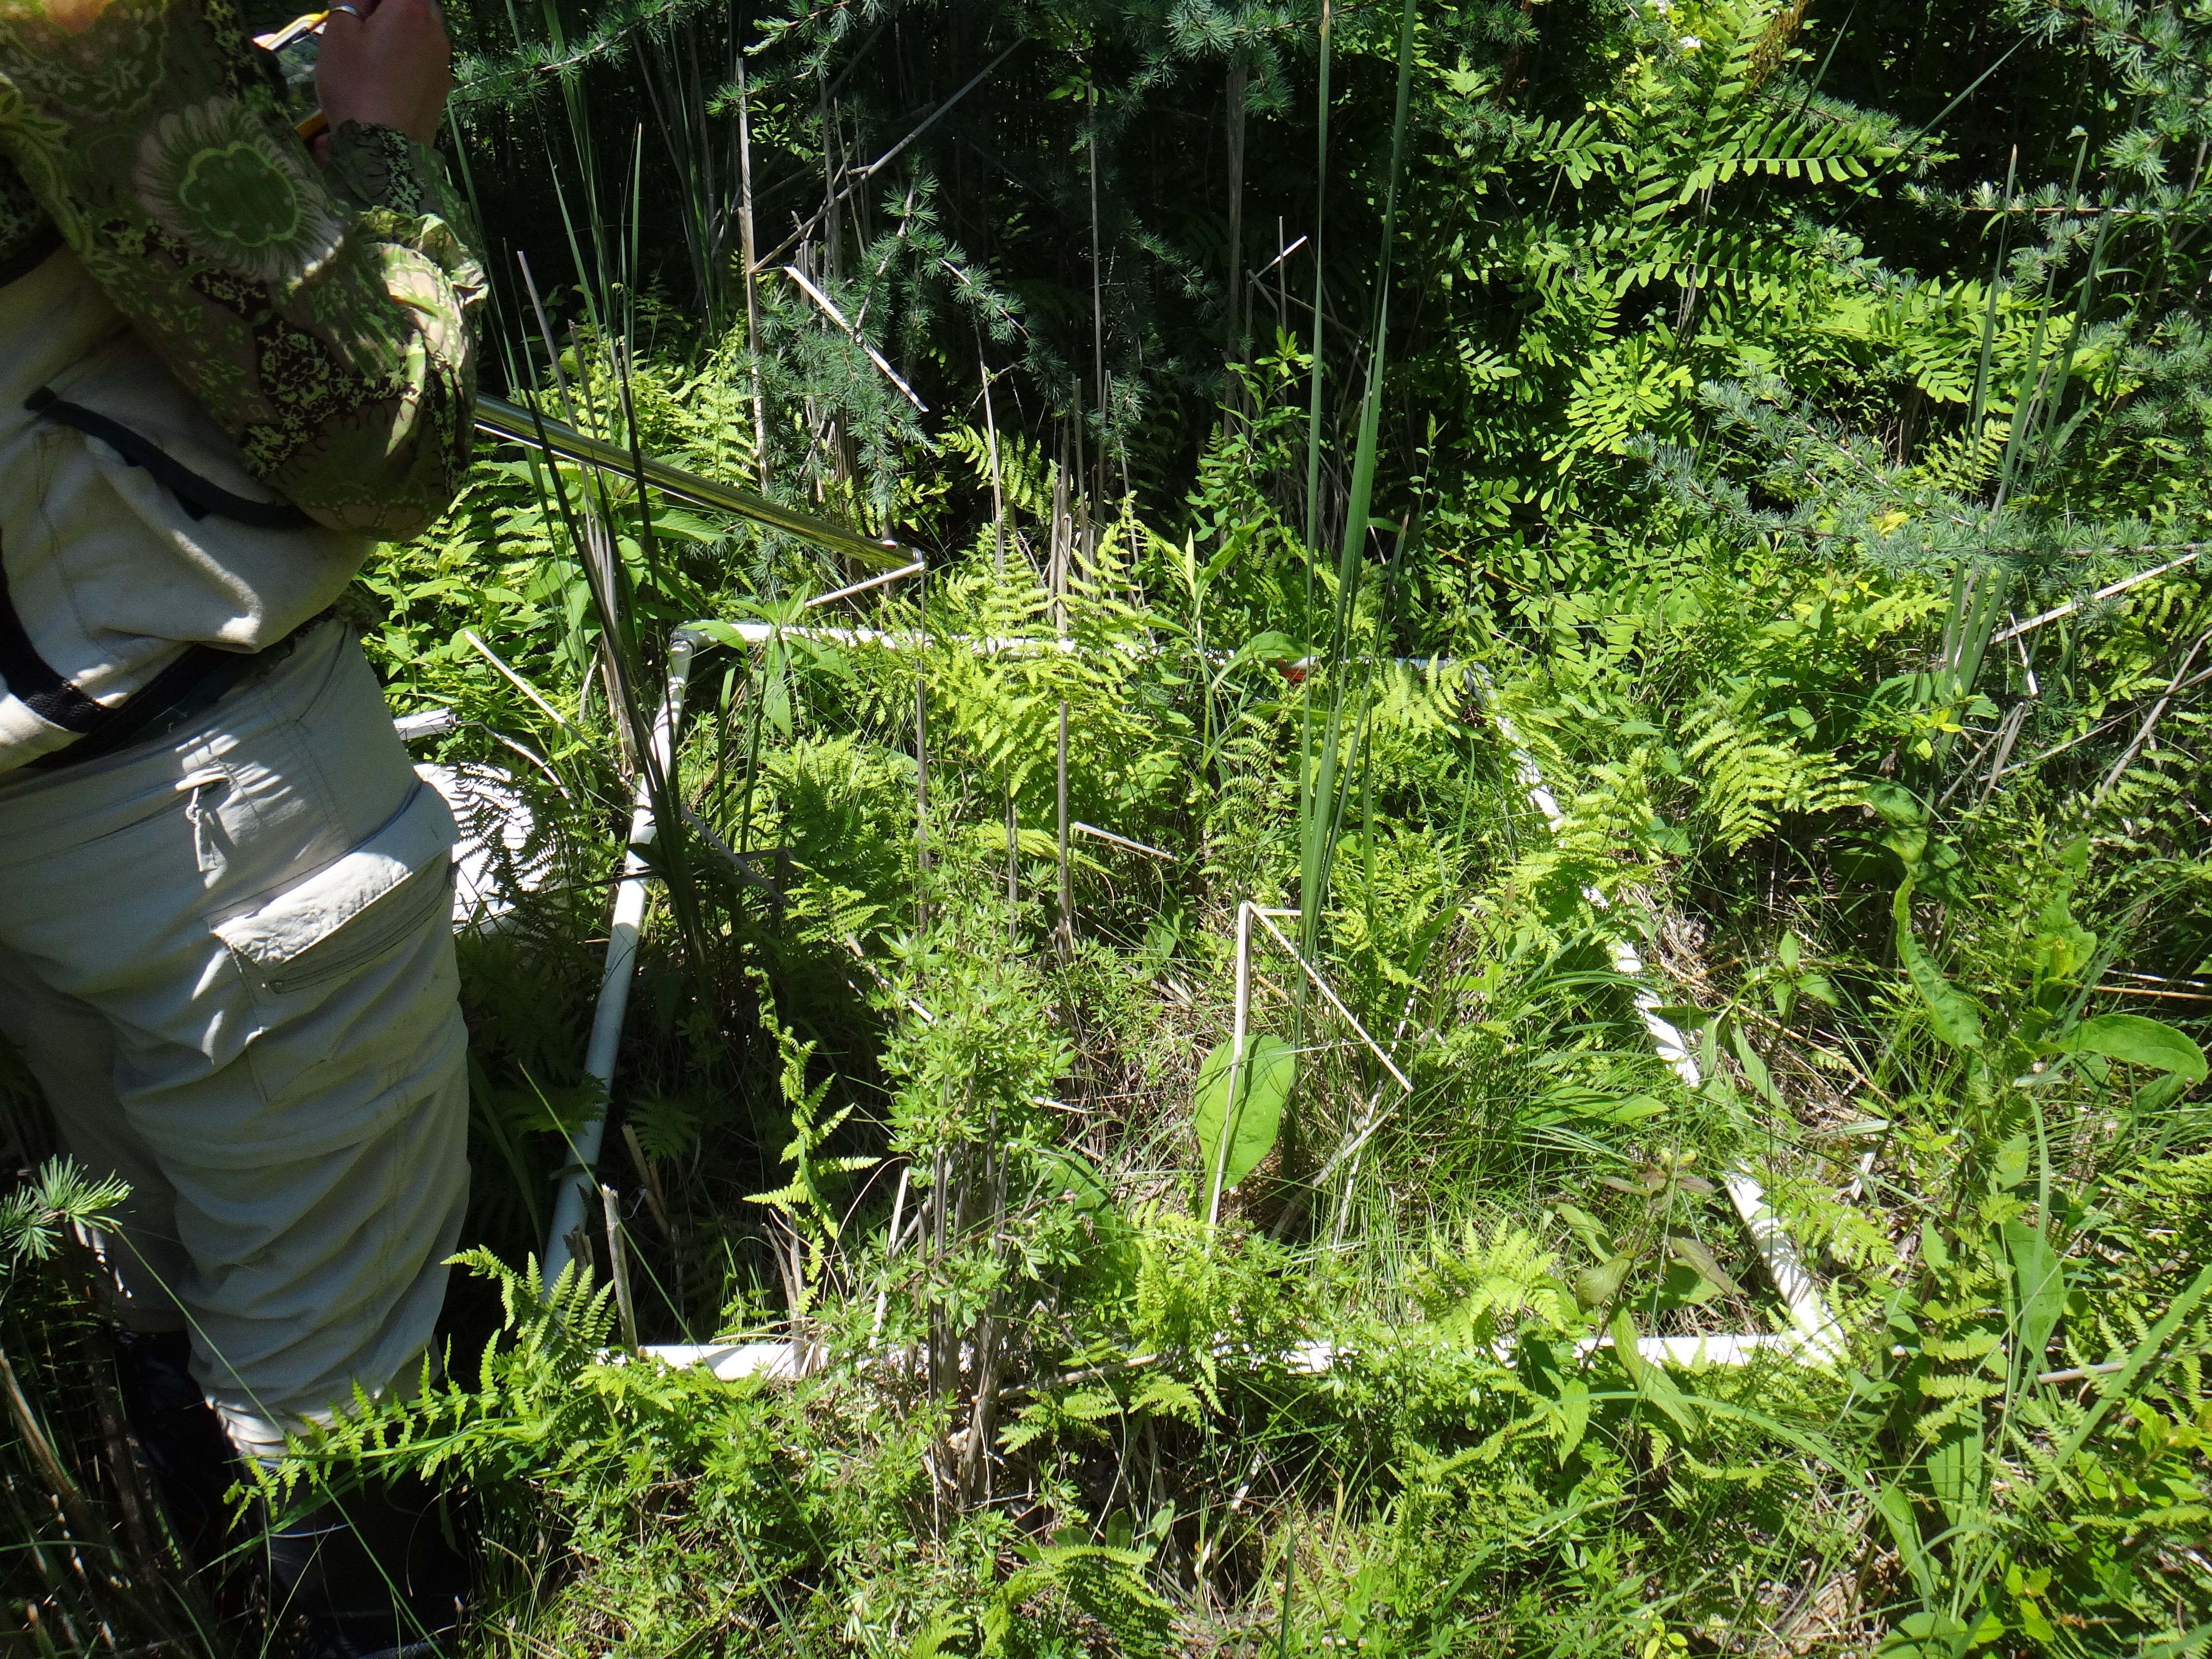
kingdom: Plantae
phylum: Tracheophyta
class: Magnoliopsida
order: Rosales
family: Rosaceae
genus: Spiraea
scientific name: Spiraea tomentosa
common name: Hardhack
